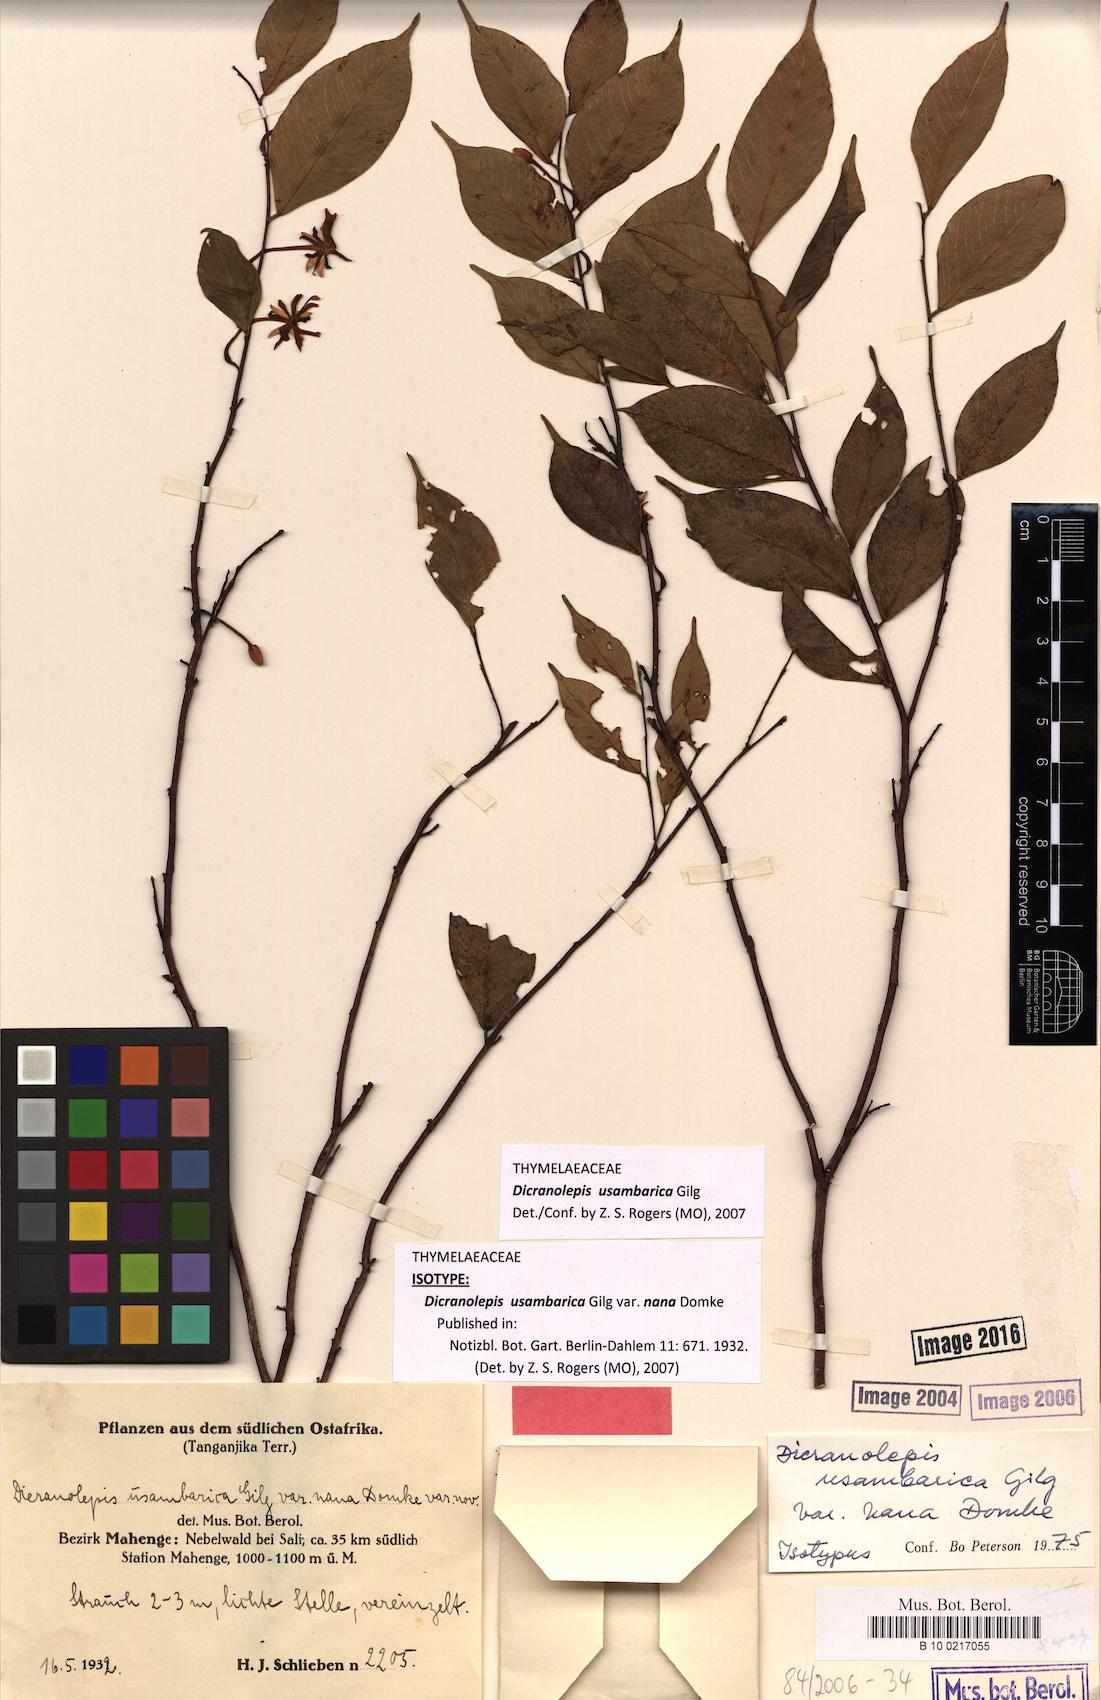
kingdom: Plantae
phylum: Tracheophyta
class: Magnoliopsida
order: Malvales
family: Thymelaeaceae
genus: Dicranolepis
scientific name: Dicranolepis usambarica
